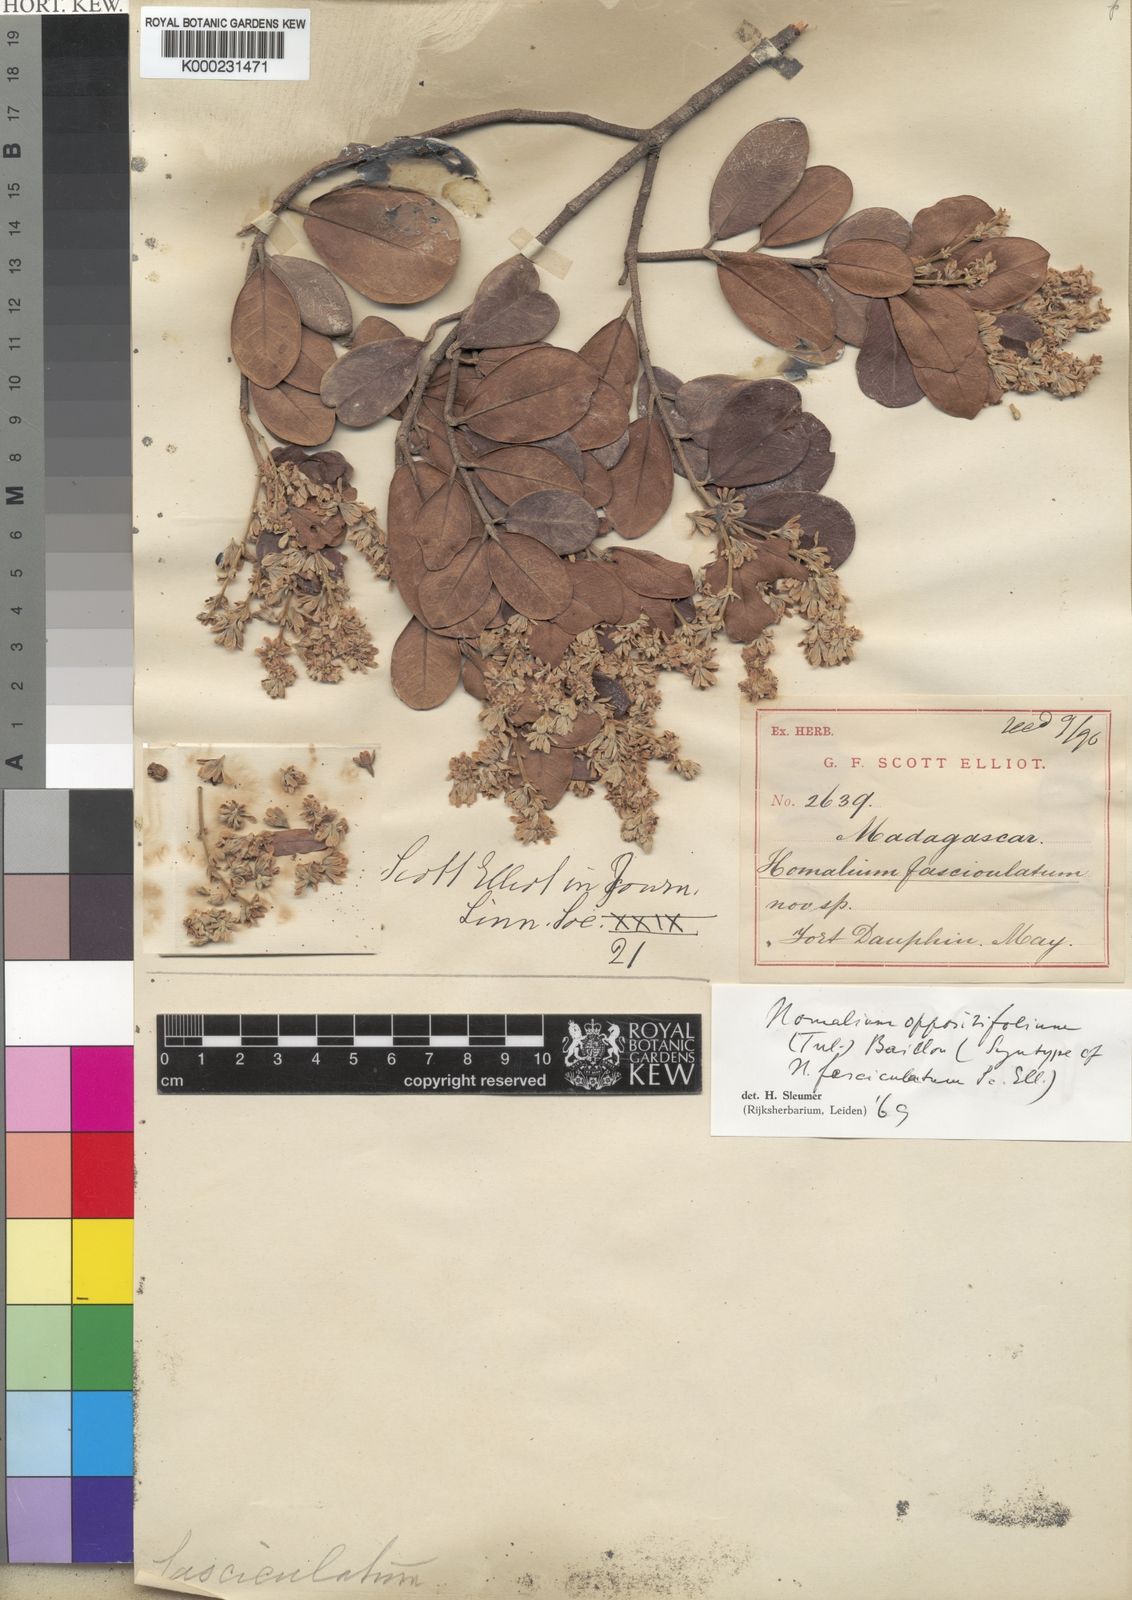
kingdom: Plantae
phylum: Tracheophyta
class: Magnoliopsida
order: Malpighiales
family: Salicaceae
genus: Homalium
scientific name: Homalium oppositifolium
